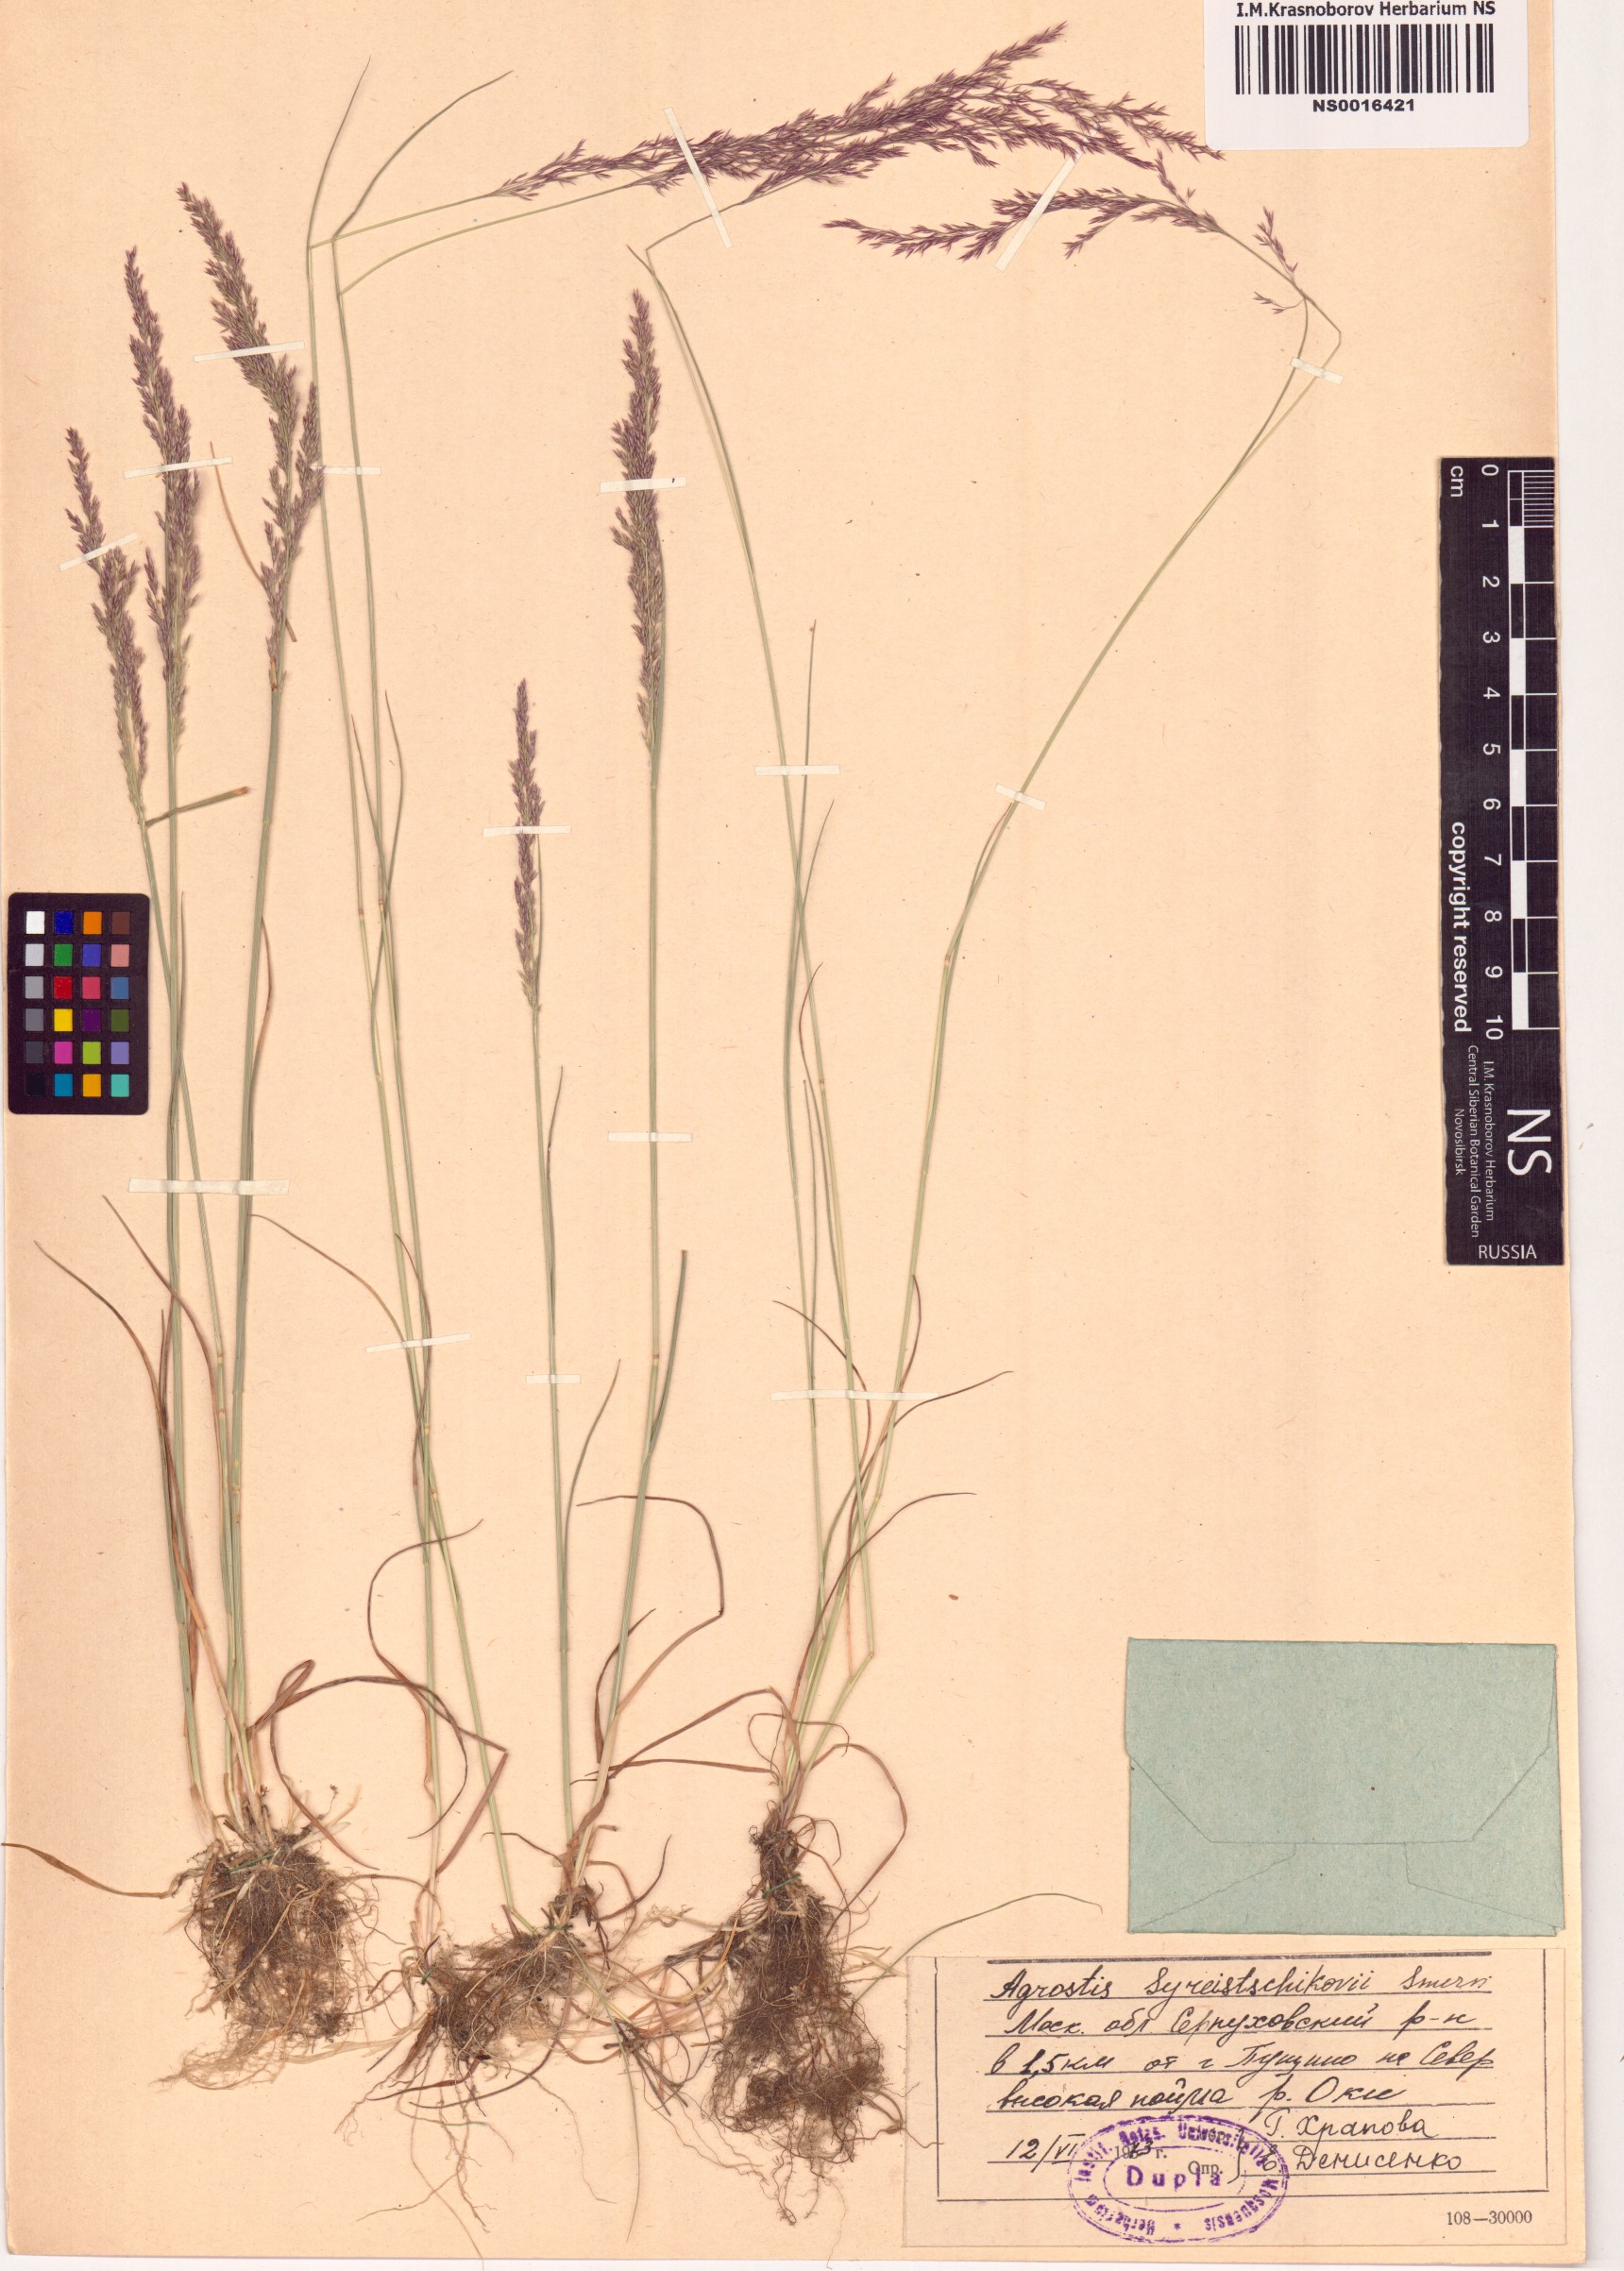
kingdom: Plantae
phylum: Tracheophyta
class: Liliopsida
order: Poales
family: Poaceae
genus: Agrostis
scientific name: Agrostis vinealis
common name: Brown bent
